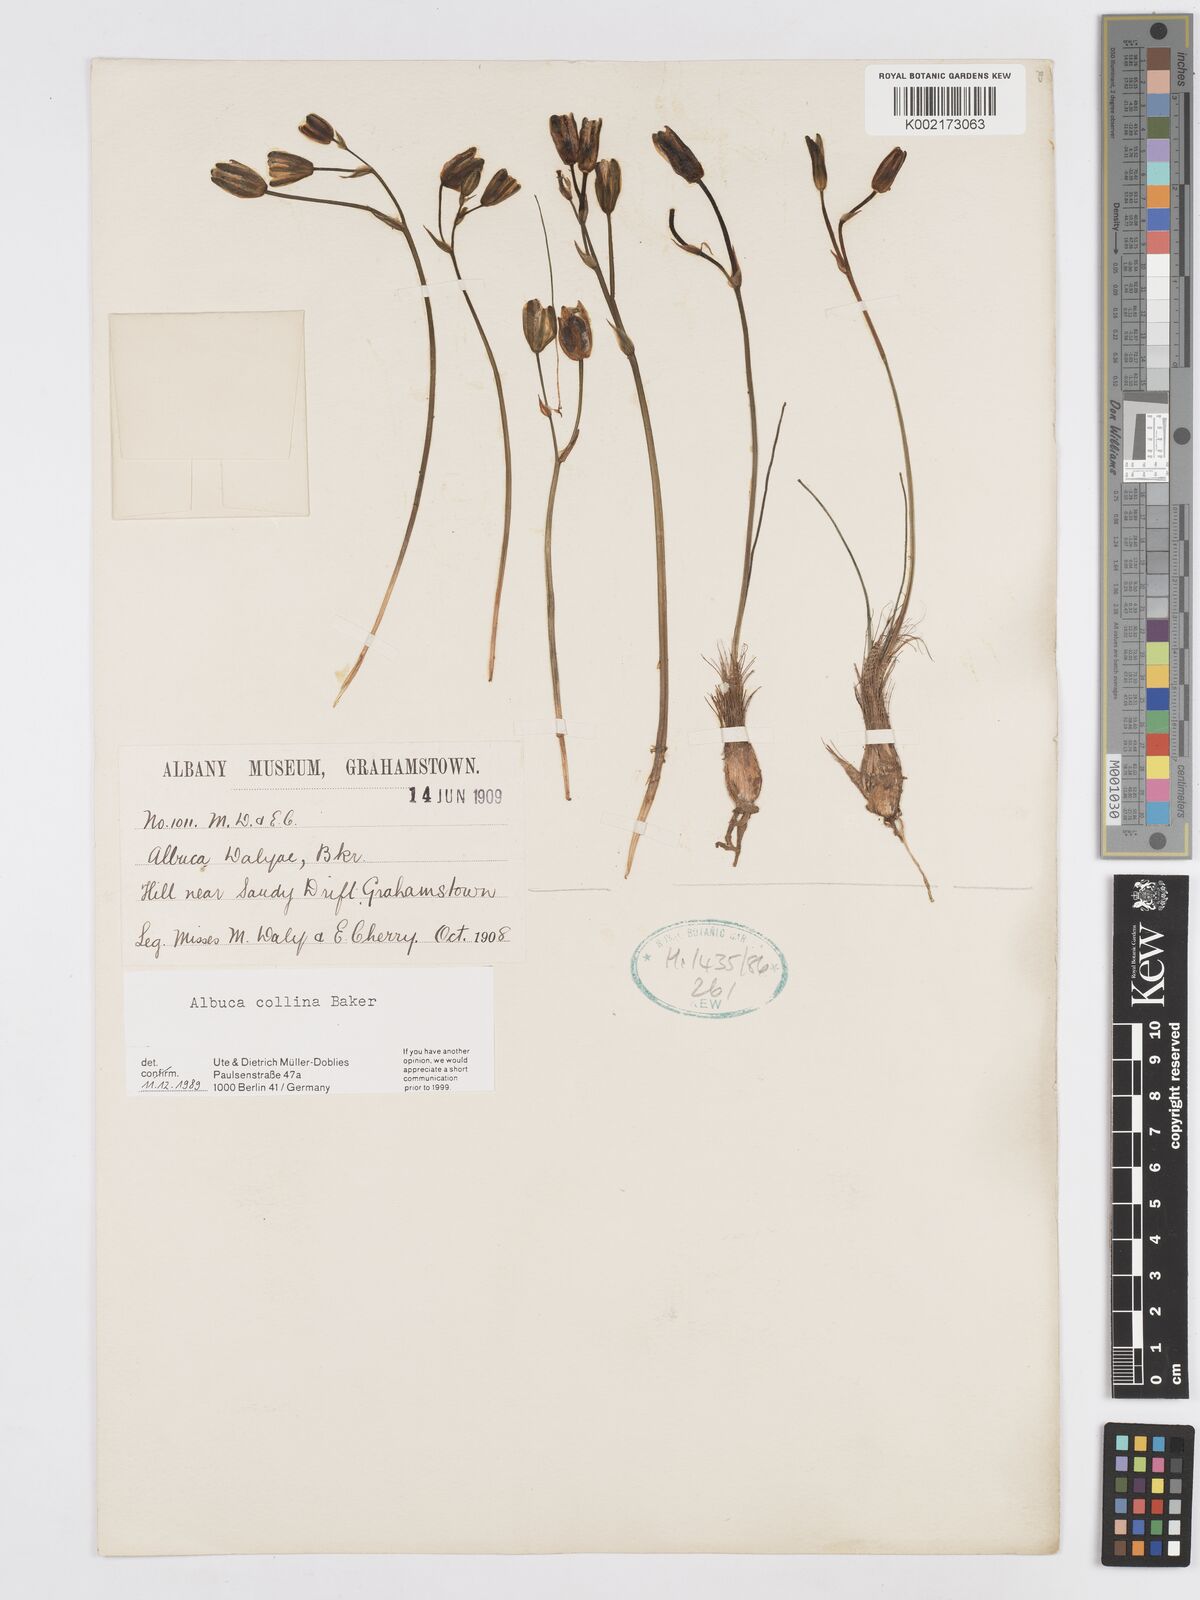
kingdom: Plantae
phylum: Tracheophyta
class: Liliopsida
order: Asparagales
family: Asparagaceae
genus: Albuca
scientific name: Albuca collina
